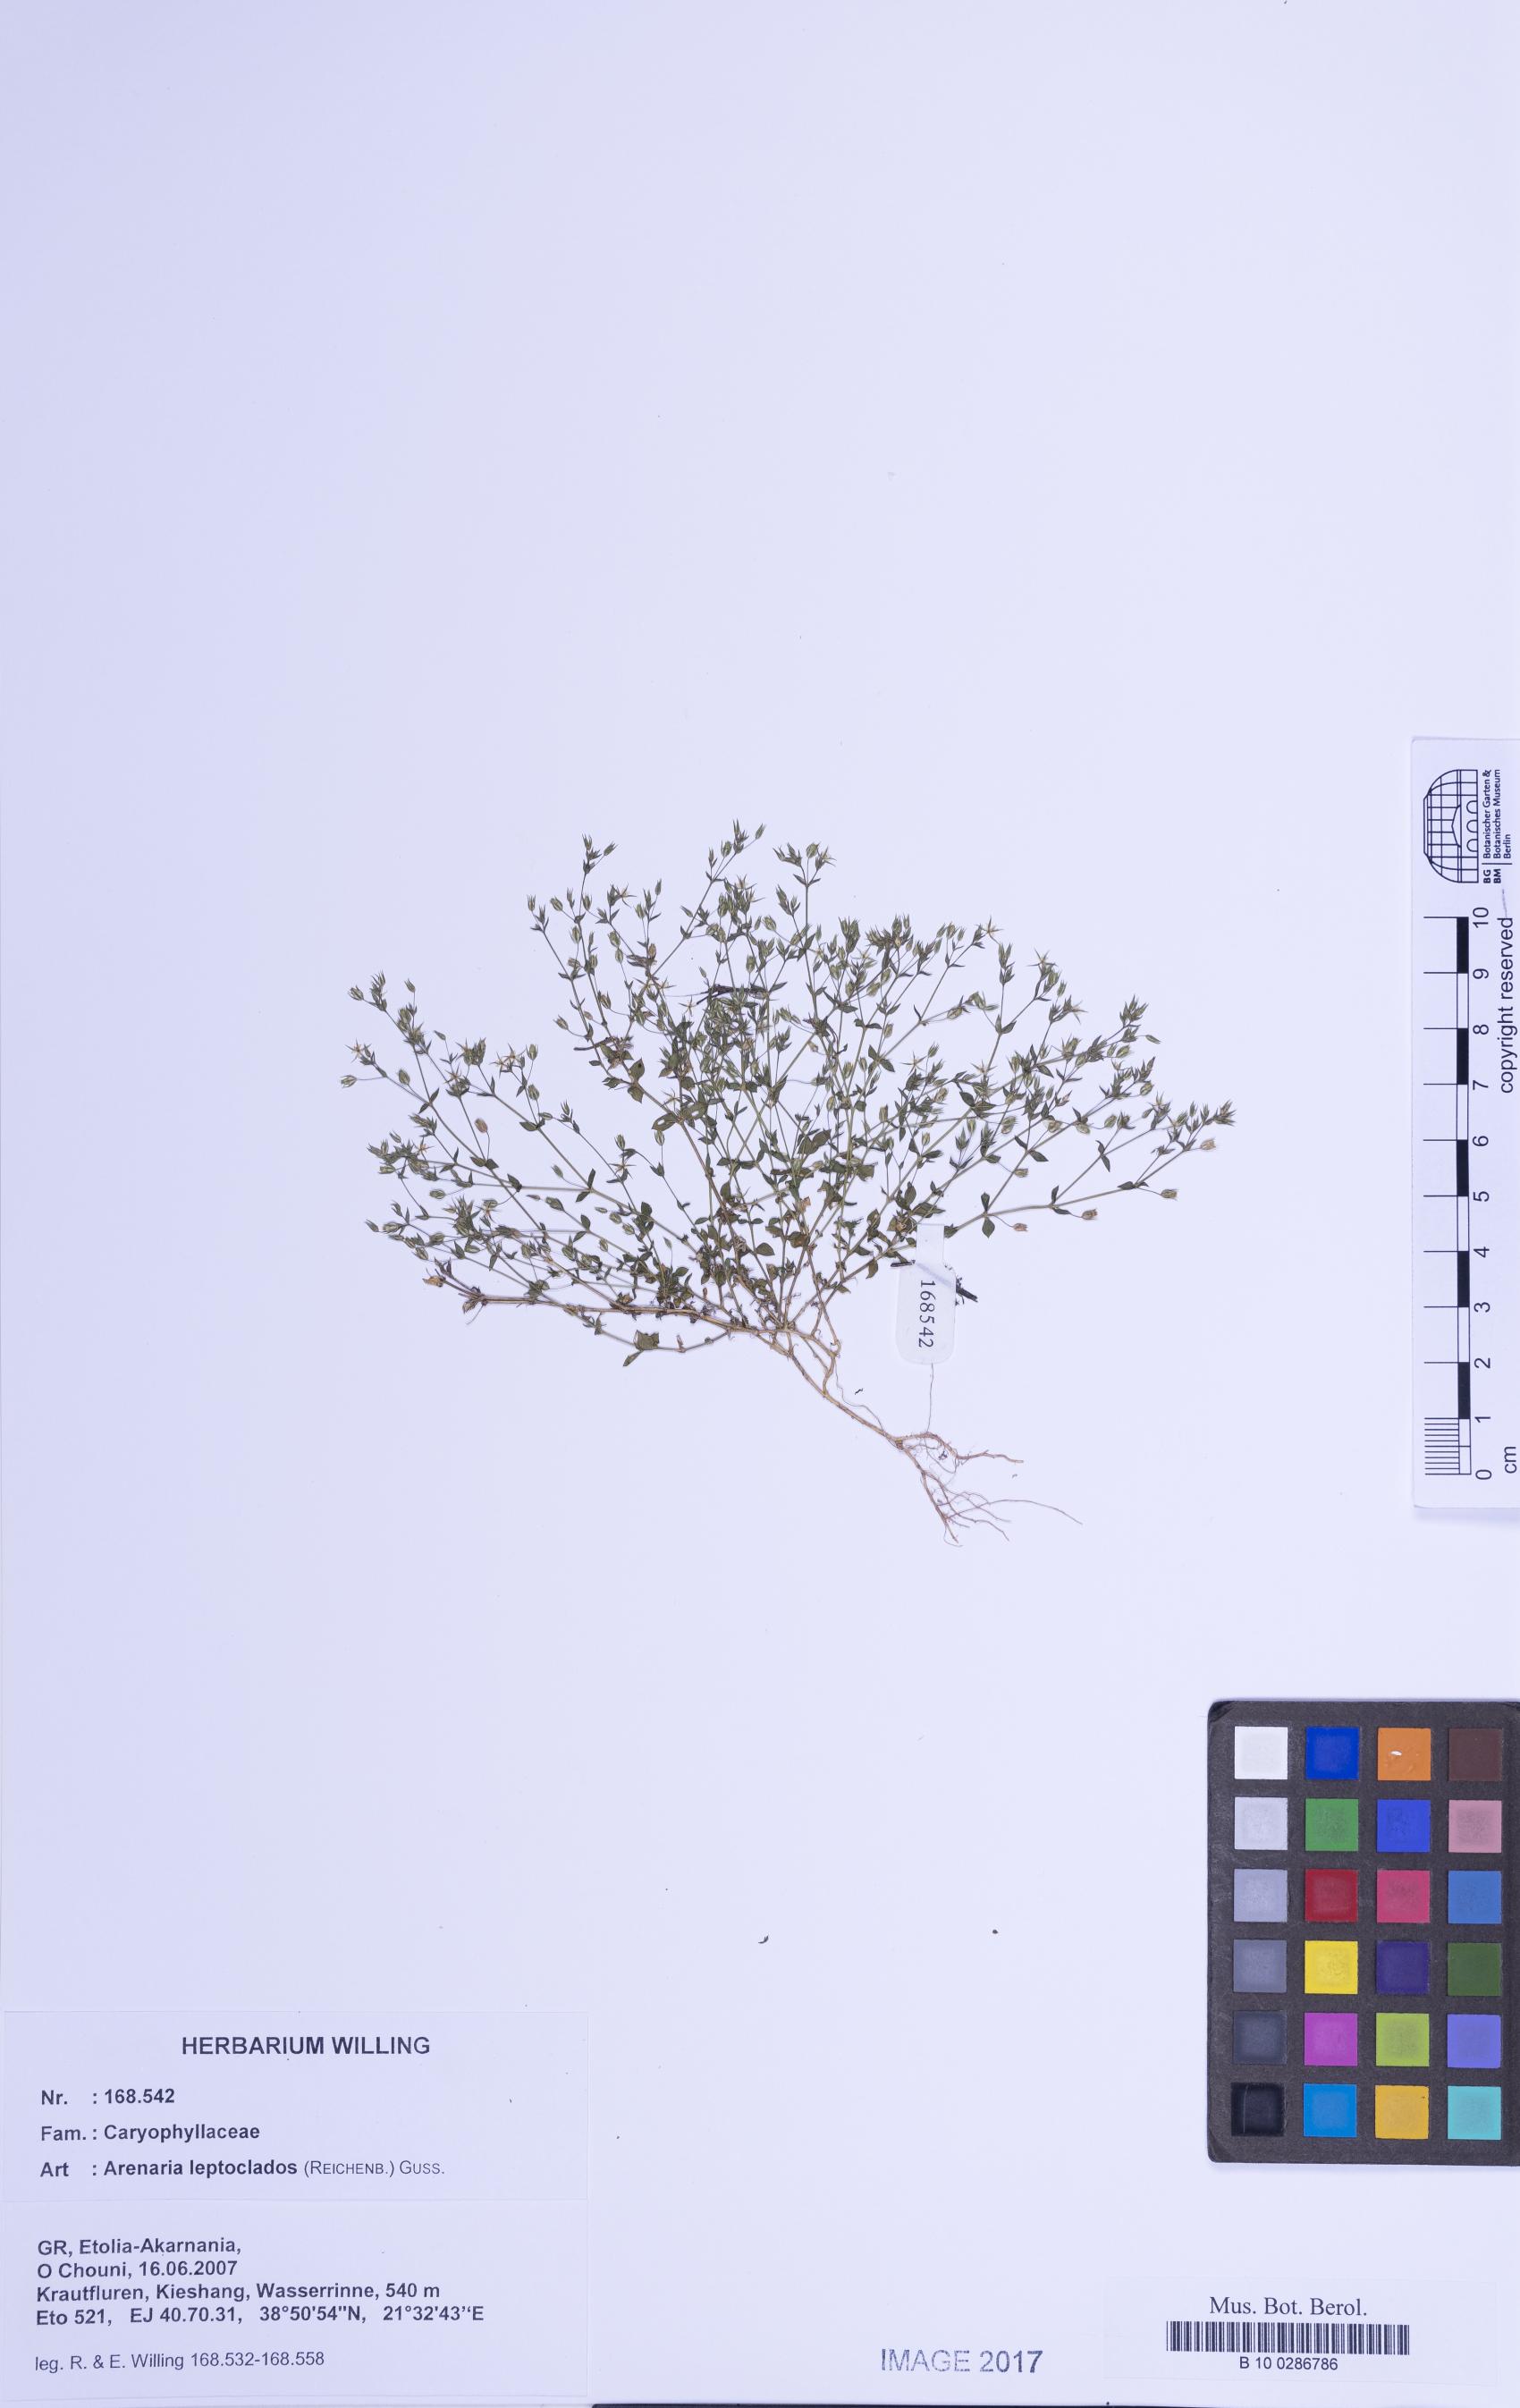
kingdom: Plantae
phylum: Tracheophyta
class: Magnoliopsida
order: Caryophyllales
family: Caryophyllaceae
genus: Arenaria
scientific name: Arenaria leptoclados
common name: Thyme-leaved sandwort
